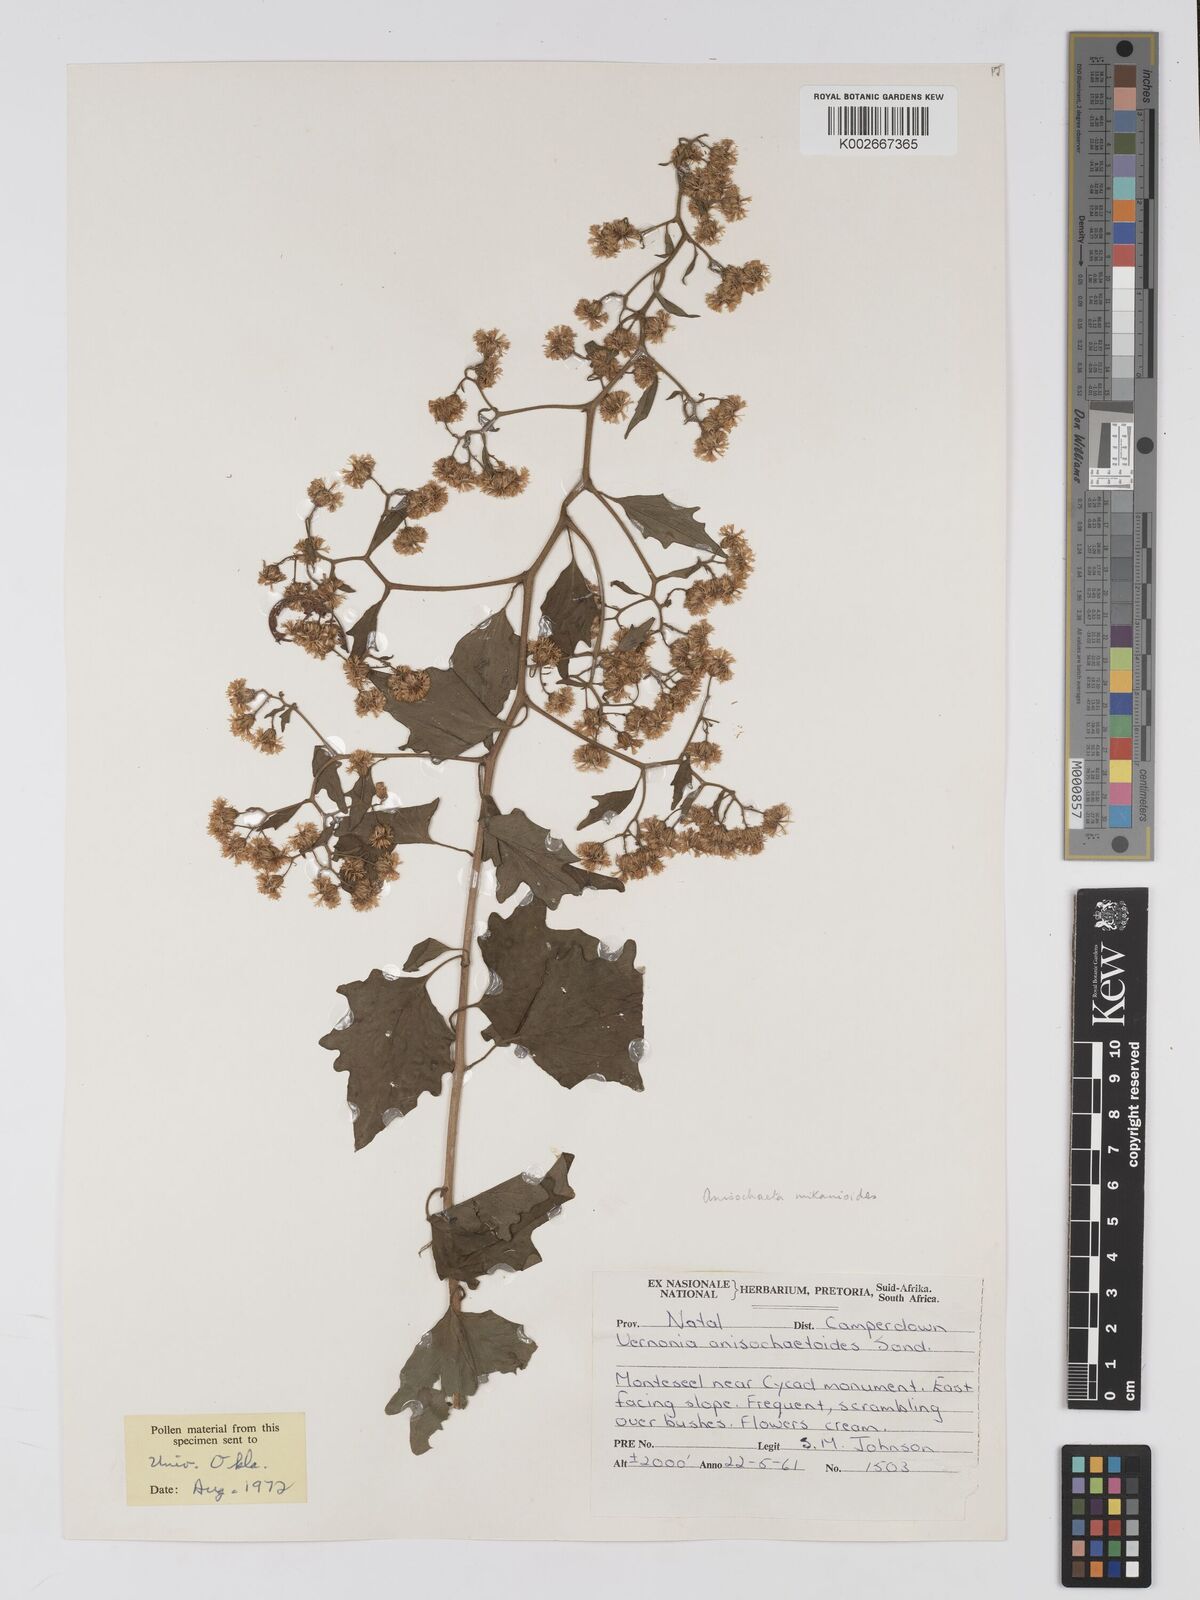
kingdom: Plantae
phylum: Tracheophyta
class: Magnoliopsida
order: Asterales
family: Asteraceae
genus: Anisochaeta
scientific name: Anisochaeta mikanioides
